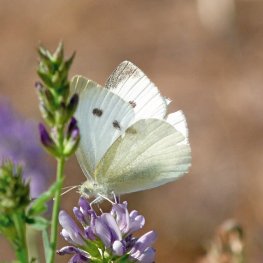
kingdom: Animalia
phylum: Arthropoda
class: Insecta
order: Lepidoptera
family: Pieridae
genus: Pieris
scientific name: Pieris rapae
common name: Cabbage White
